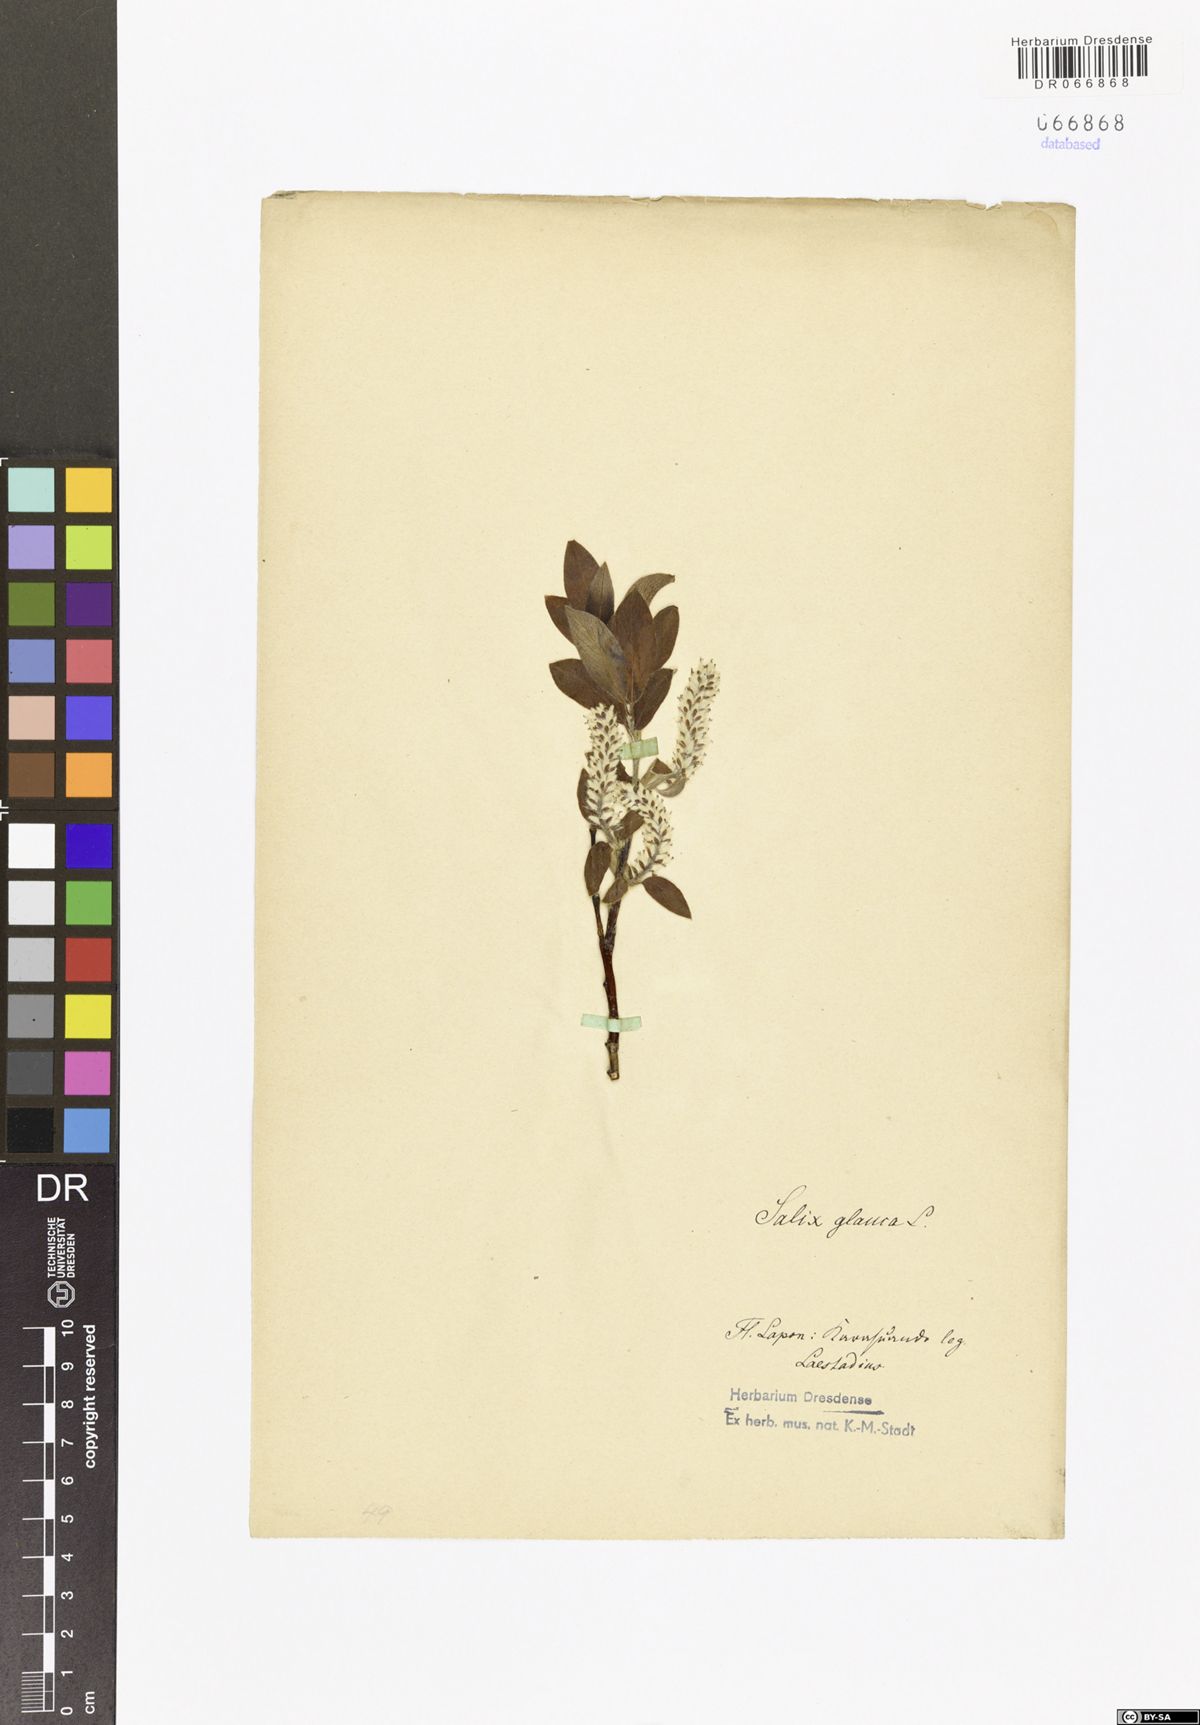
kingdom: Plantae
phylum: Tracheophyta
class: Magnoliopsida
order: Malpighiales
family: Salicaceae
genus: Salix
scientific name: Salix glauca
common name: Glaucous willow
